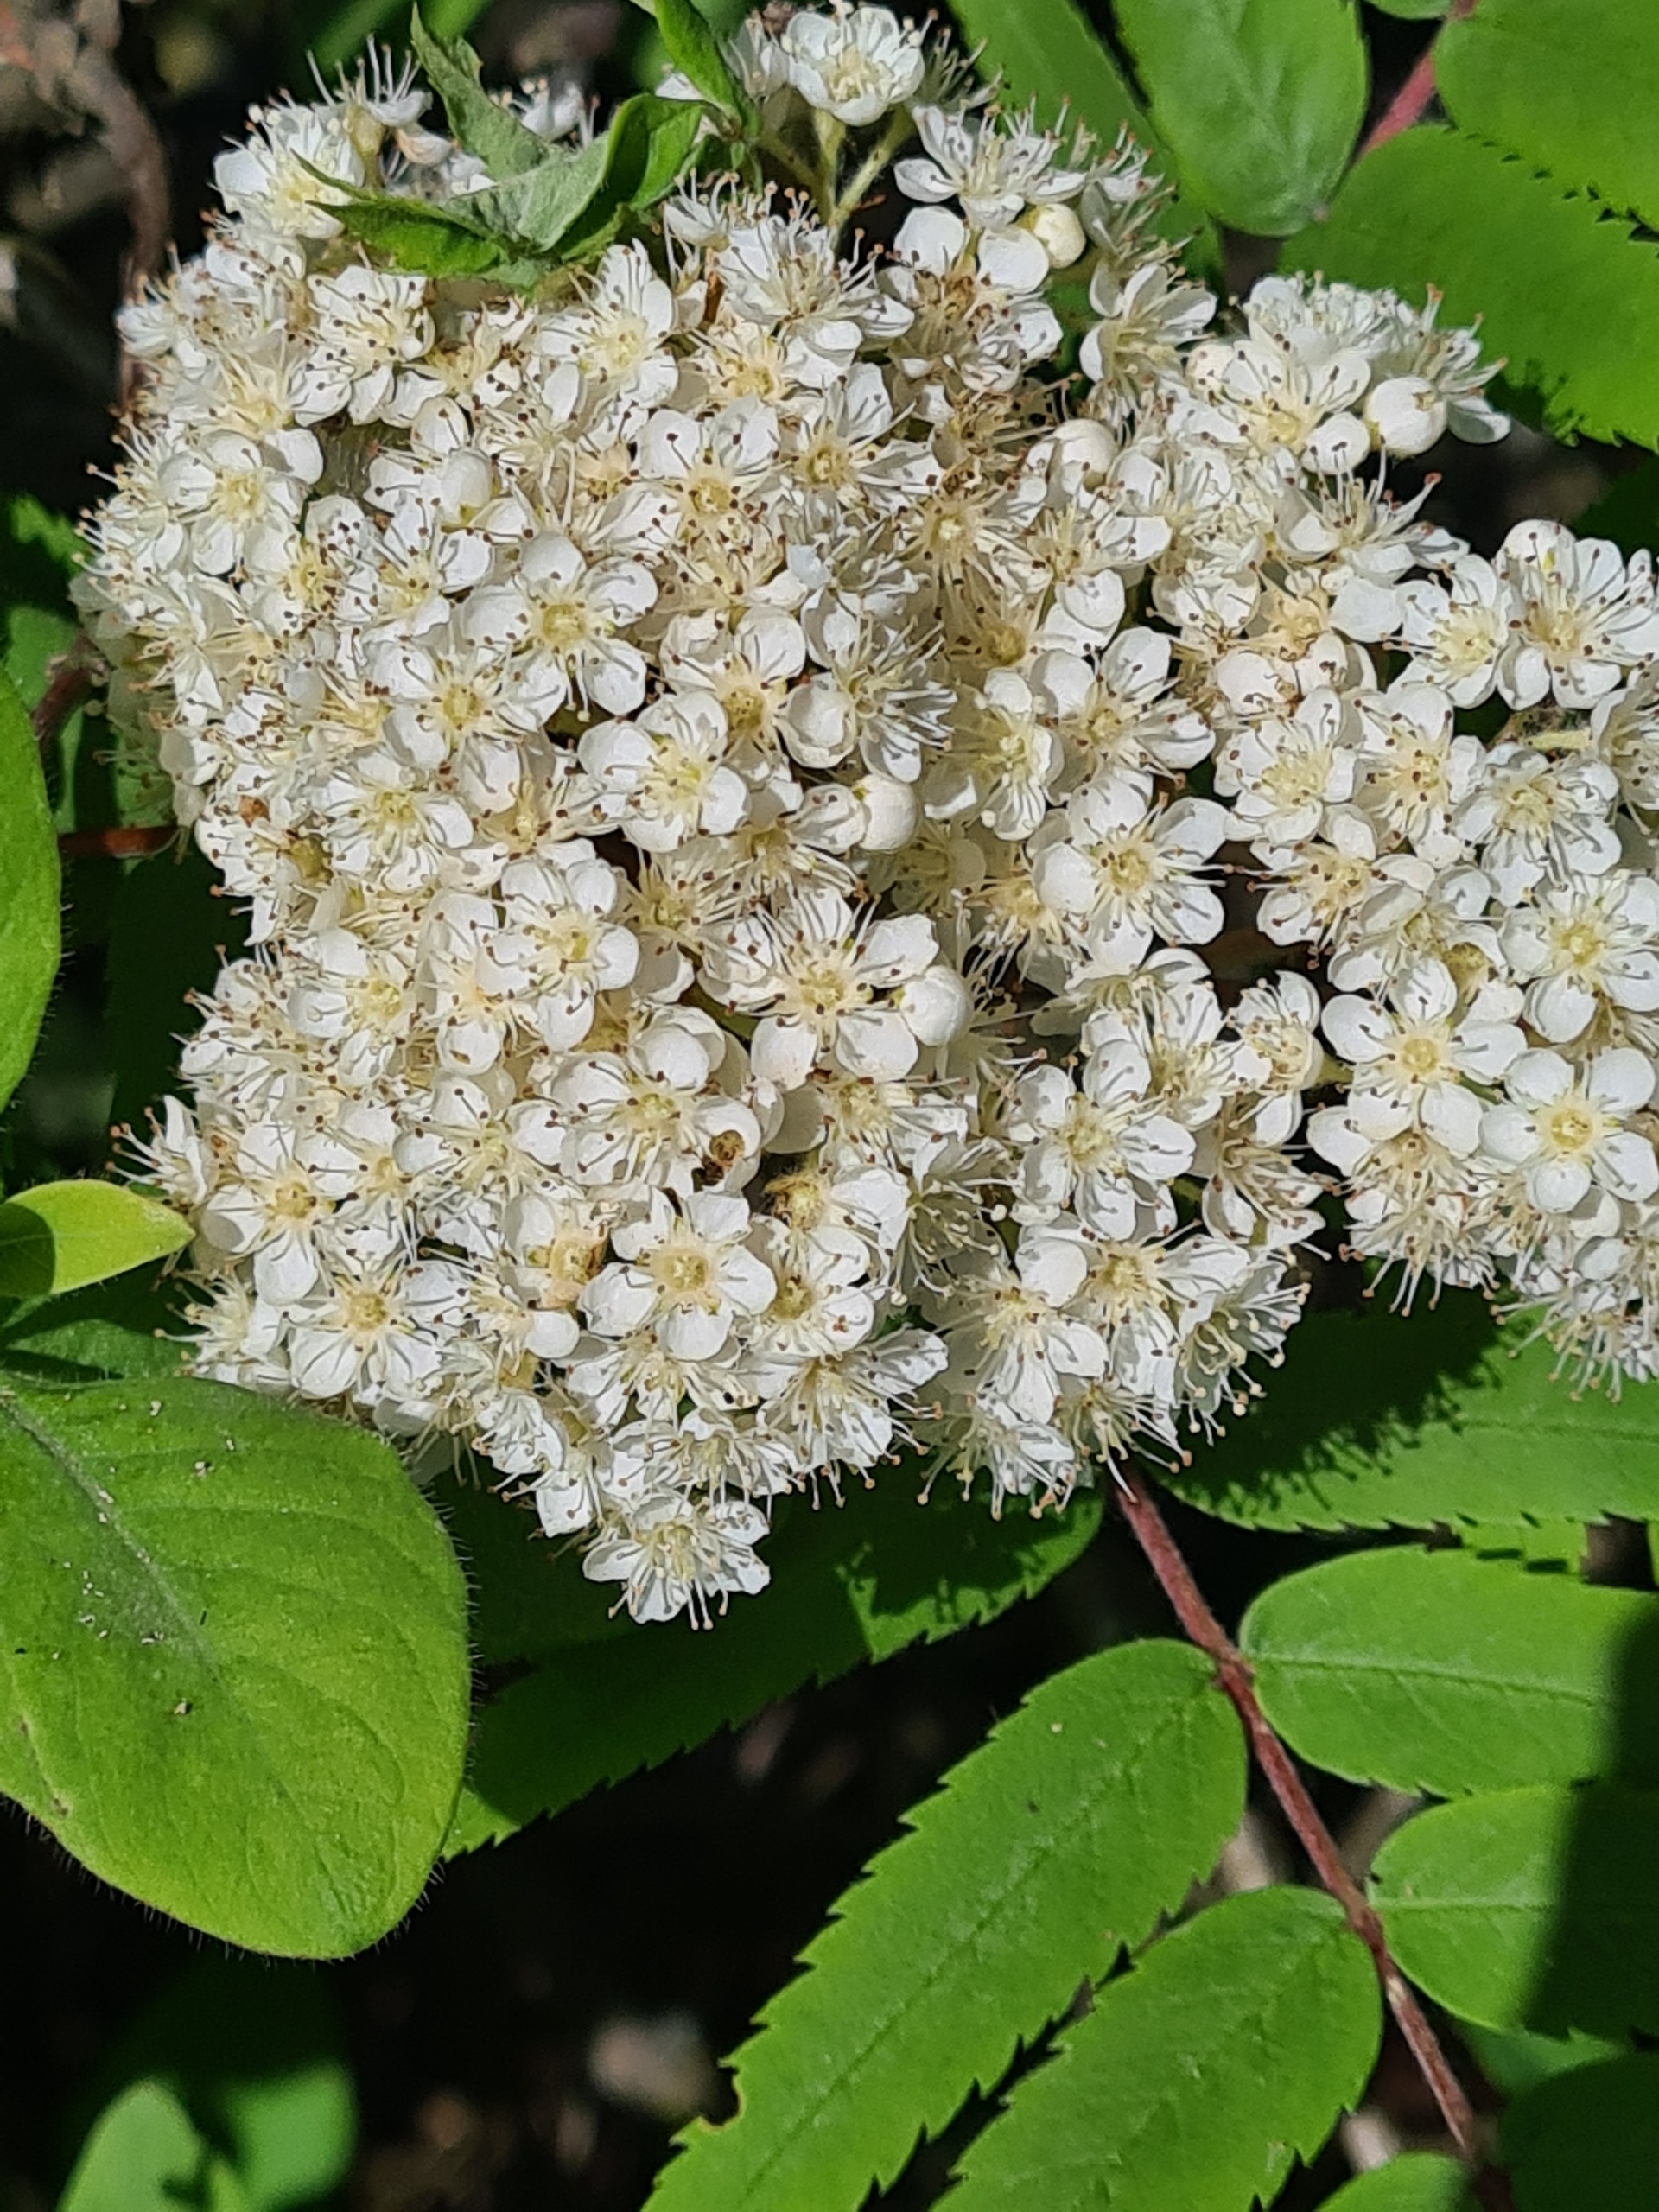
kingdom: Plantae
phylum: Tracheophyta
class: Magnoliopsida
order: Rosales
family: Rosaceae
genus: Sorbus
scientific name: Sorbus aucuparia
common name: Almindelig røn
